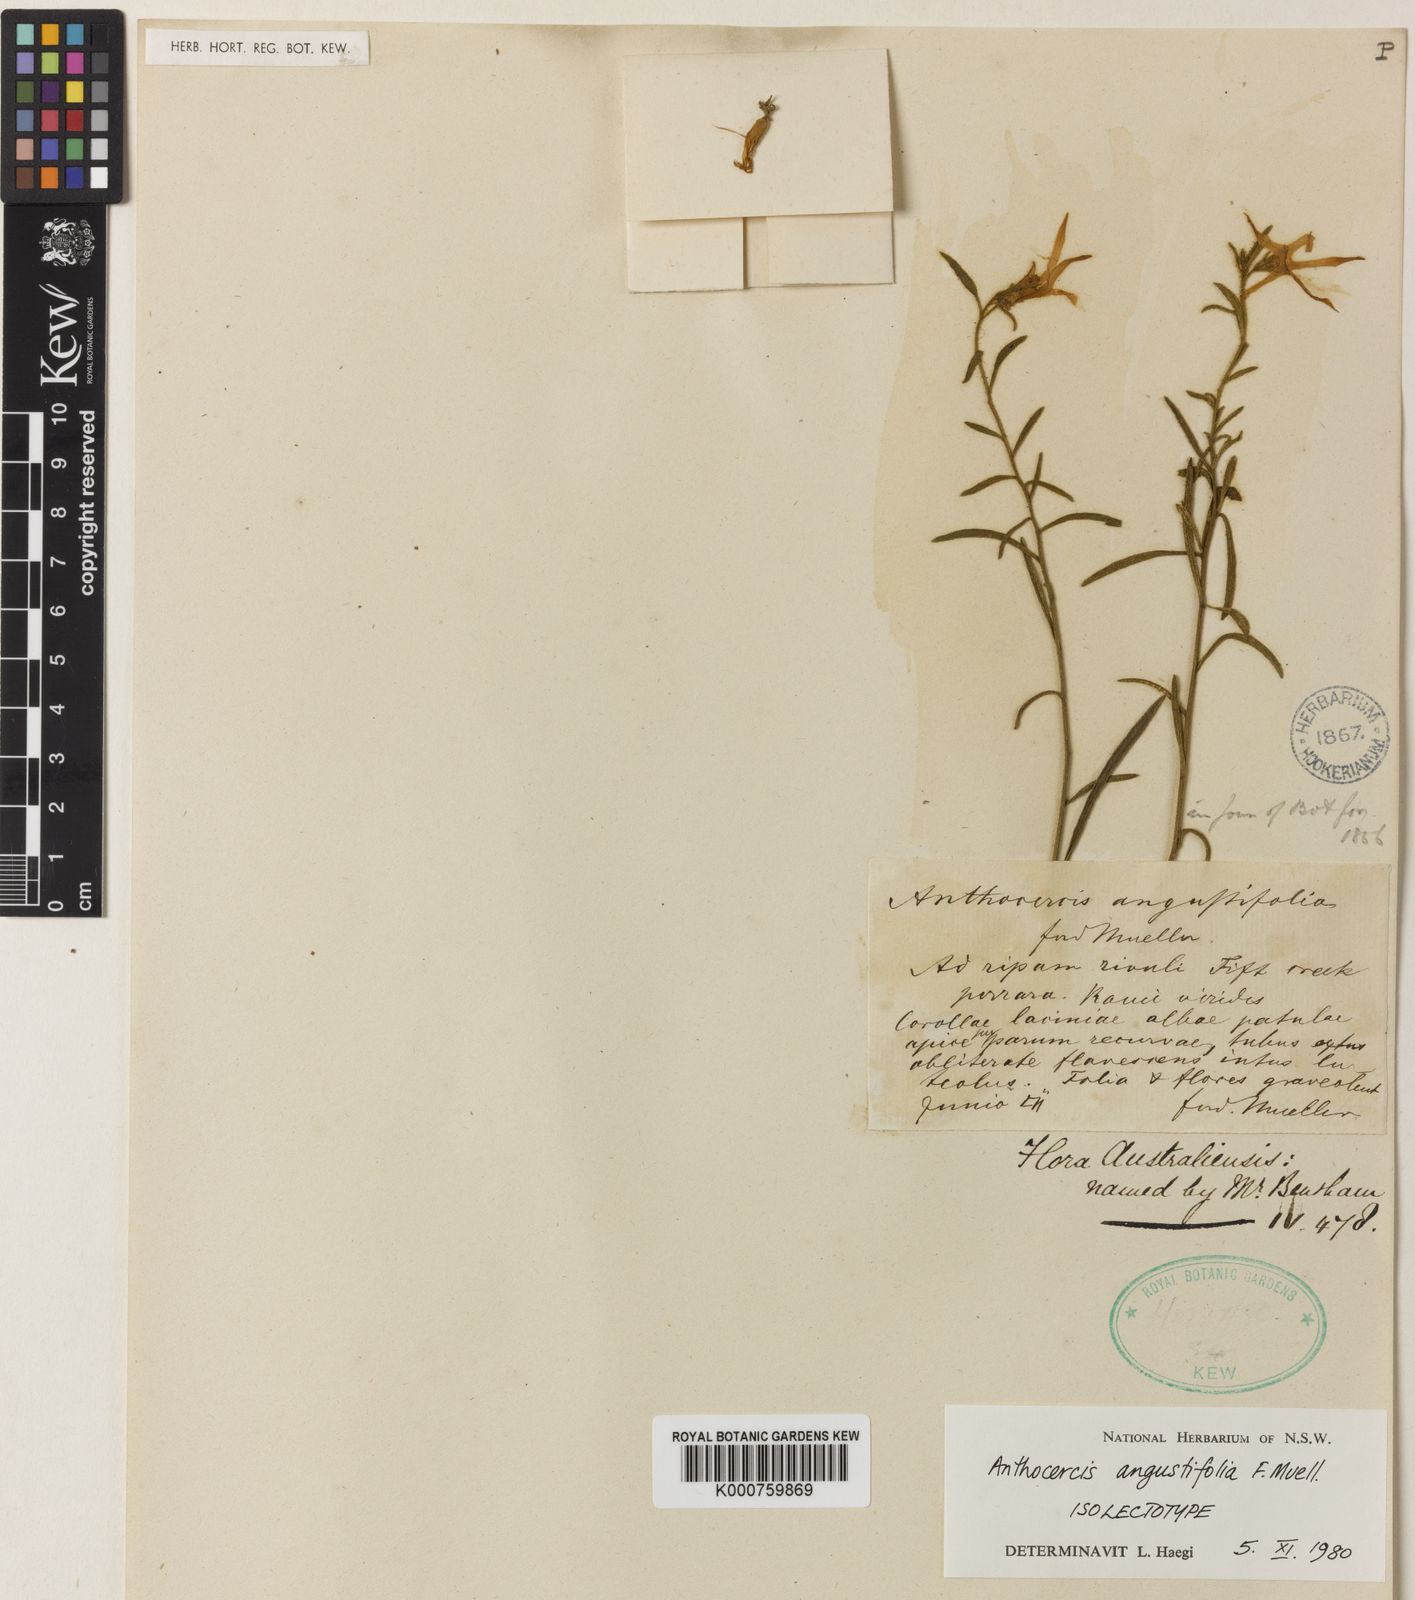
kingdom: Plantae
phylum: Tracheophyta
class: Magnoliopsida
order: Solanales
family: Solanaceae
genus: Anthocercis
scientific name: Anthocercis angustifolia
